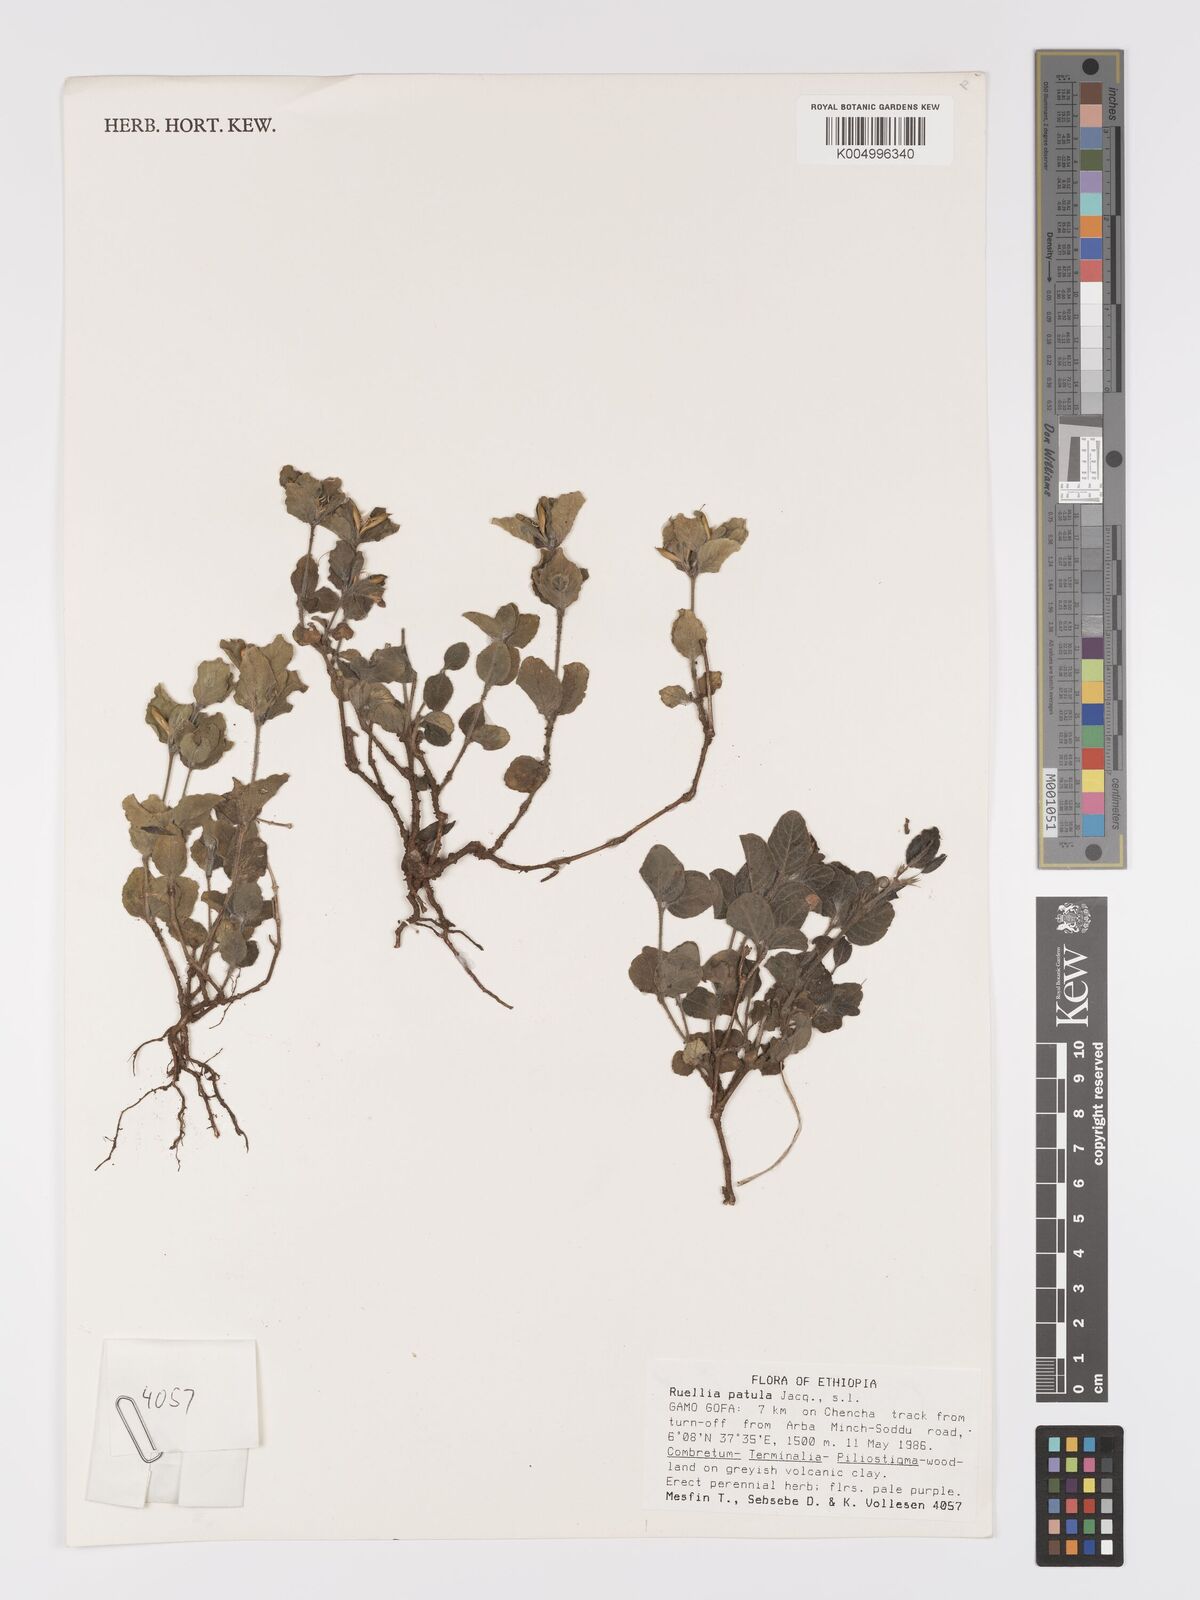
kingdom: Plantae
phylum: Tracheophyta
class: Magnoliopsida
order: Lamiales
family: Acanthaceae
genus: Ruellia
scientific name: Ruellia patula
